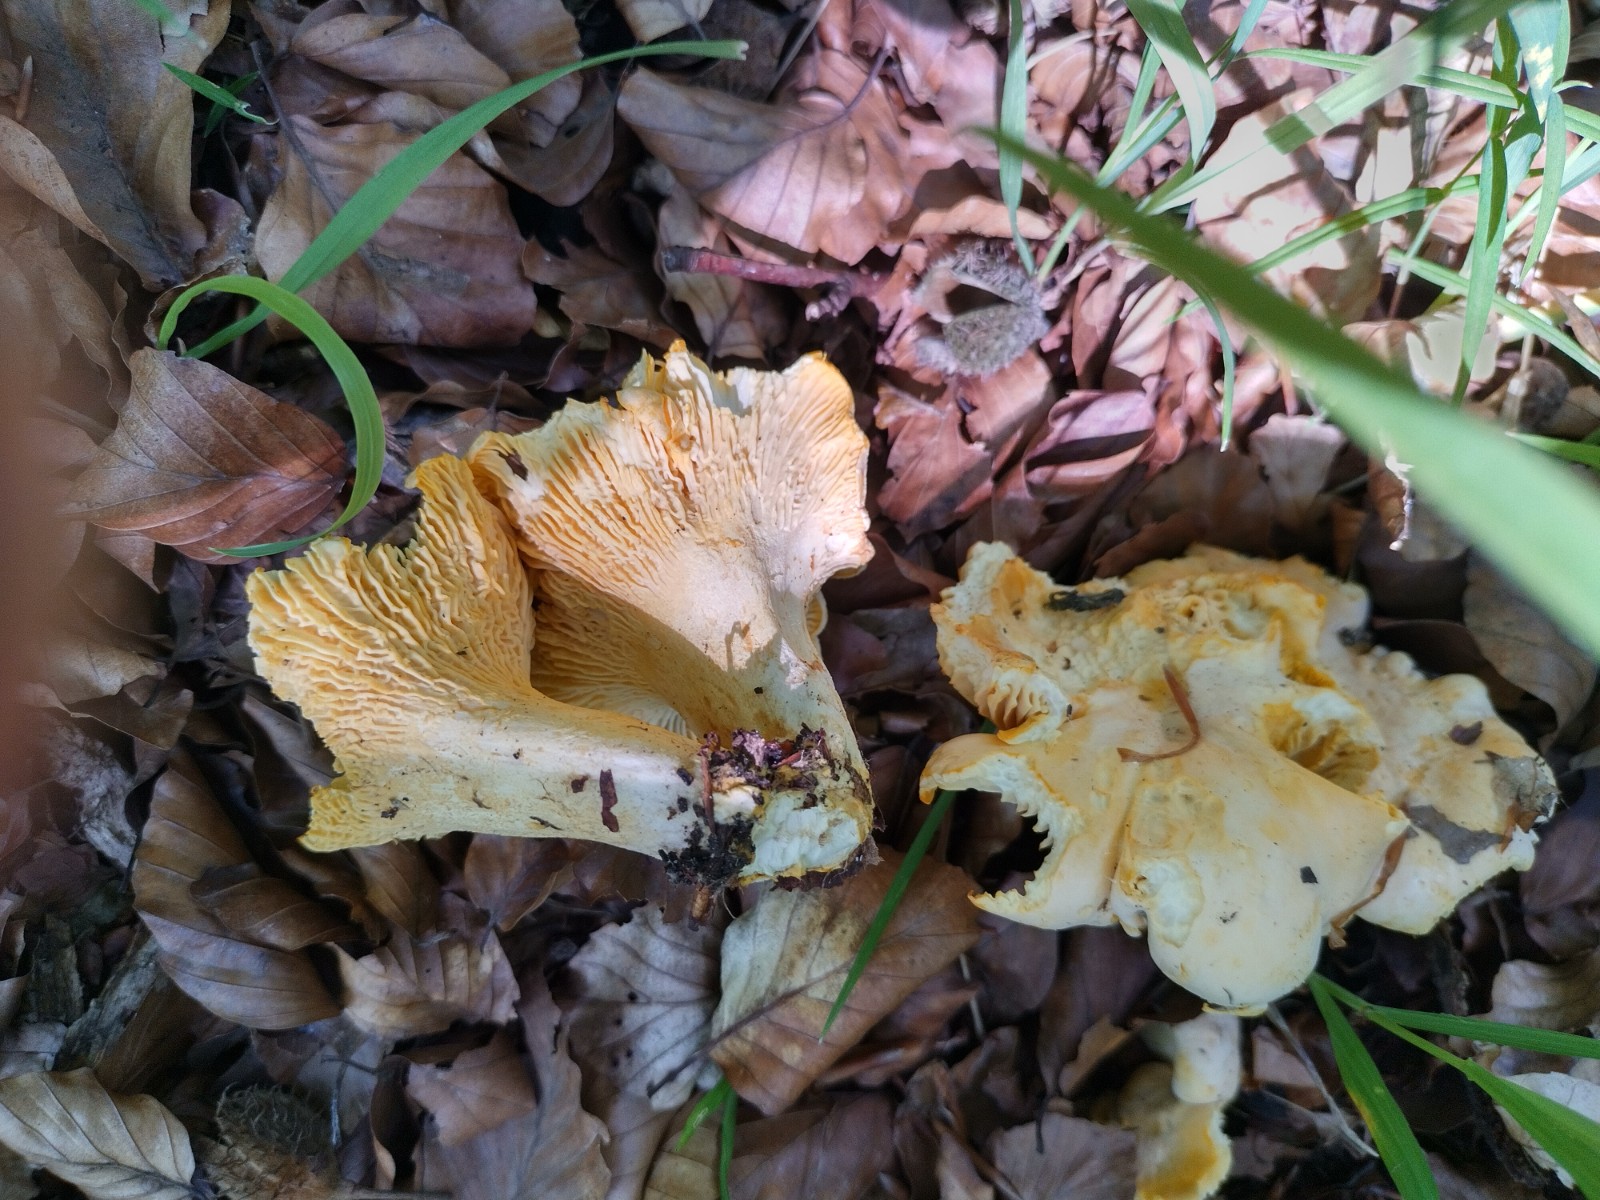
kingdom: Fungi
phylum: Basidiomycota
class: Agaricomycetes
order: Cantharellales
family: Hydnaceae
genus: Cantharellus
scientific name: Cantharellus pallens
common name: bleg kantarel
